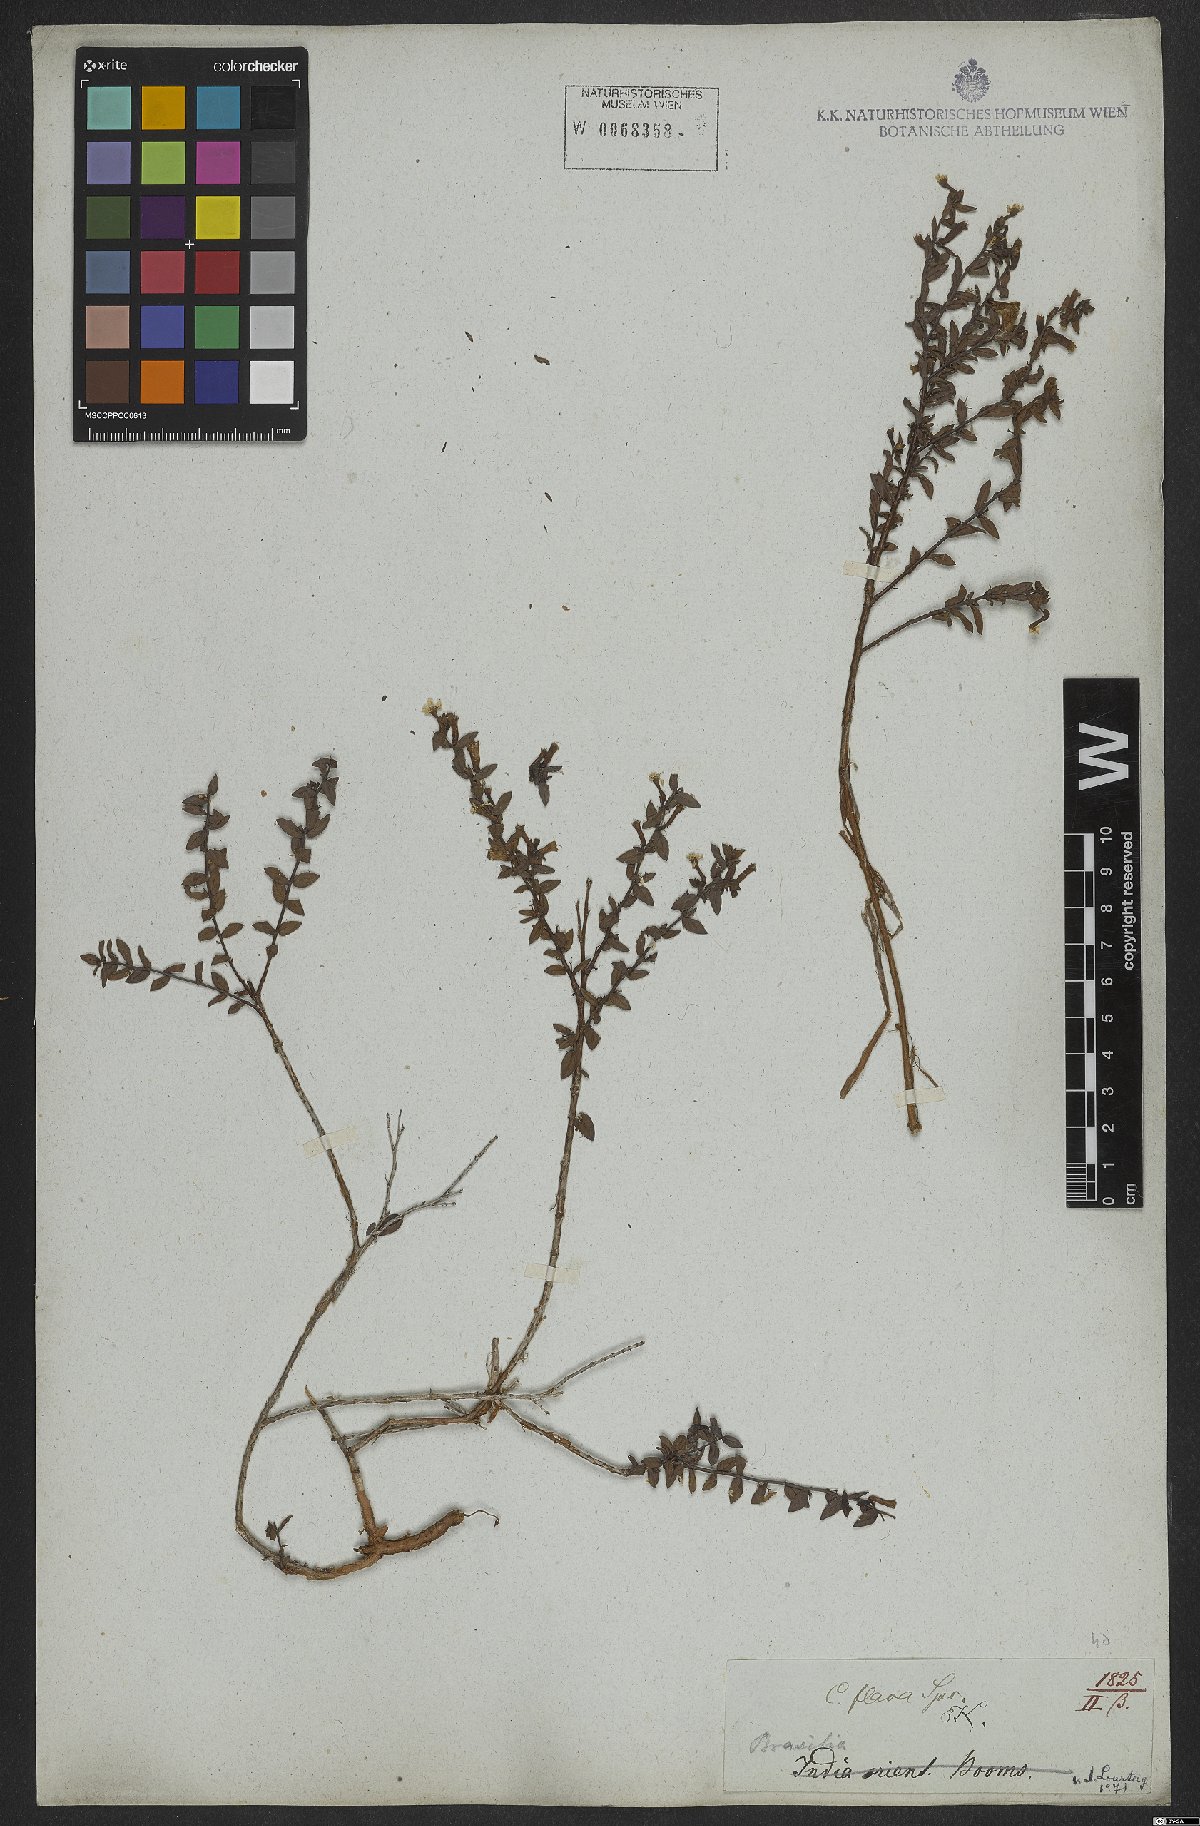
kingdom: Plantae
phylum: Tracheophyta
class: Magnoliopsida
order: Myrtales
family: Lythraceae
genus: Cuphea
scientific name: Cuphea flava
